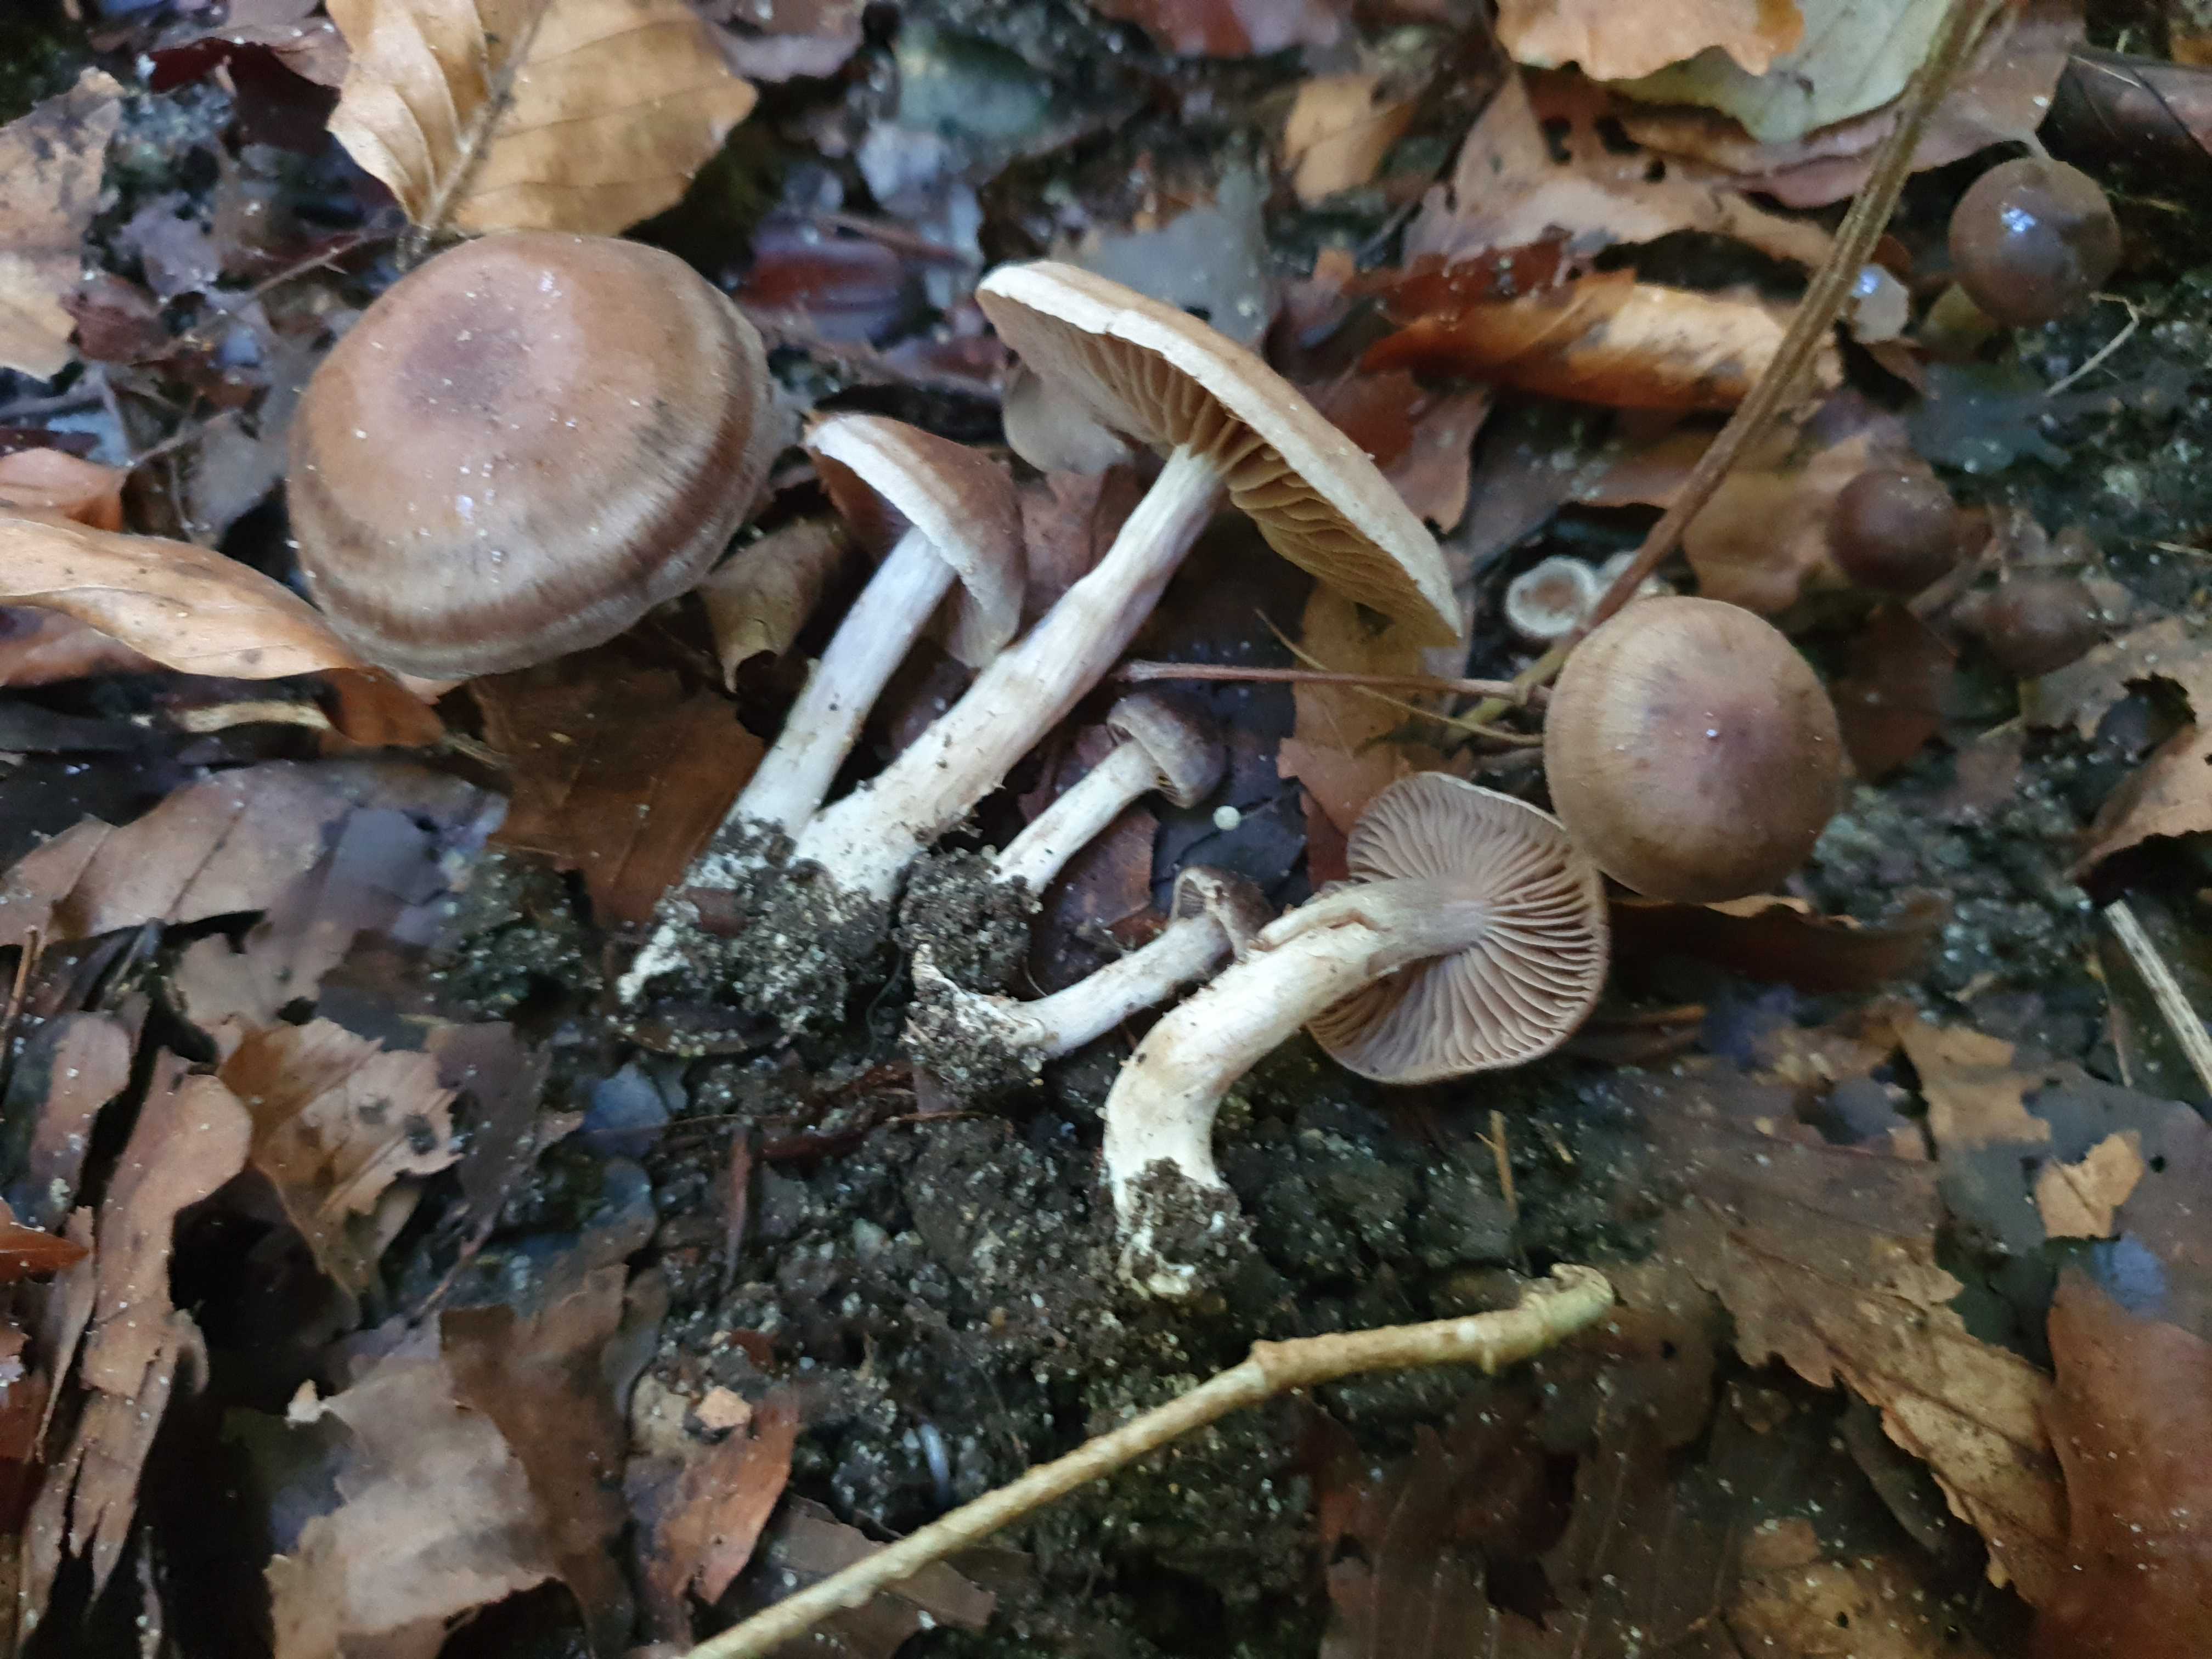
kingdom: Fungi
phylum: Basidiomycota
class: Agaricomycetes
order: Agaricales
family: Cortinariaceae
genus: Cortinarius
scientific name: Cortinarius
